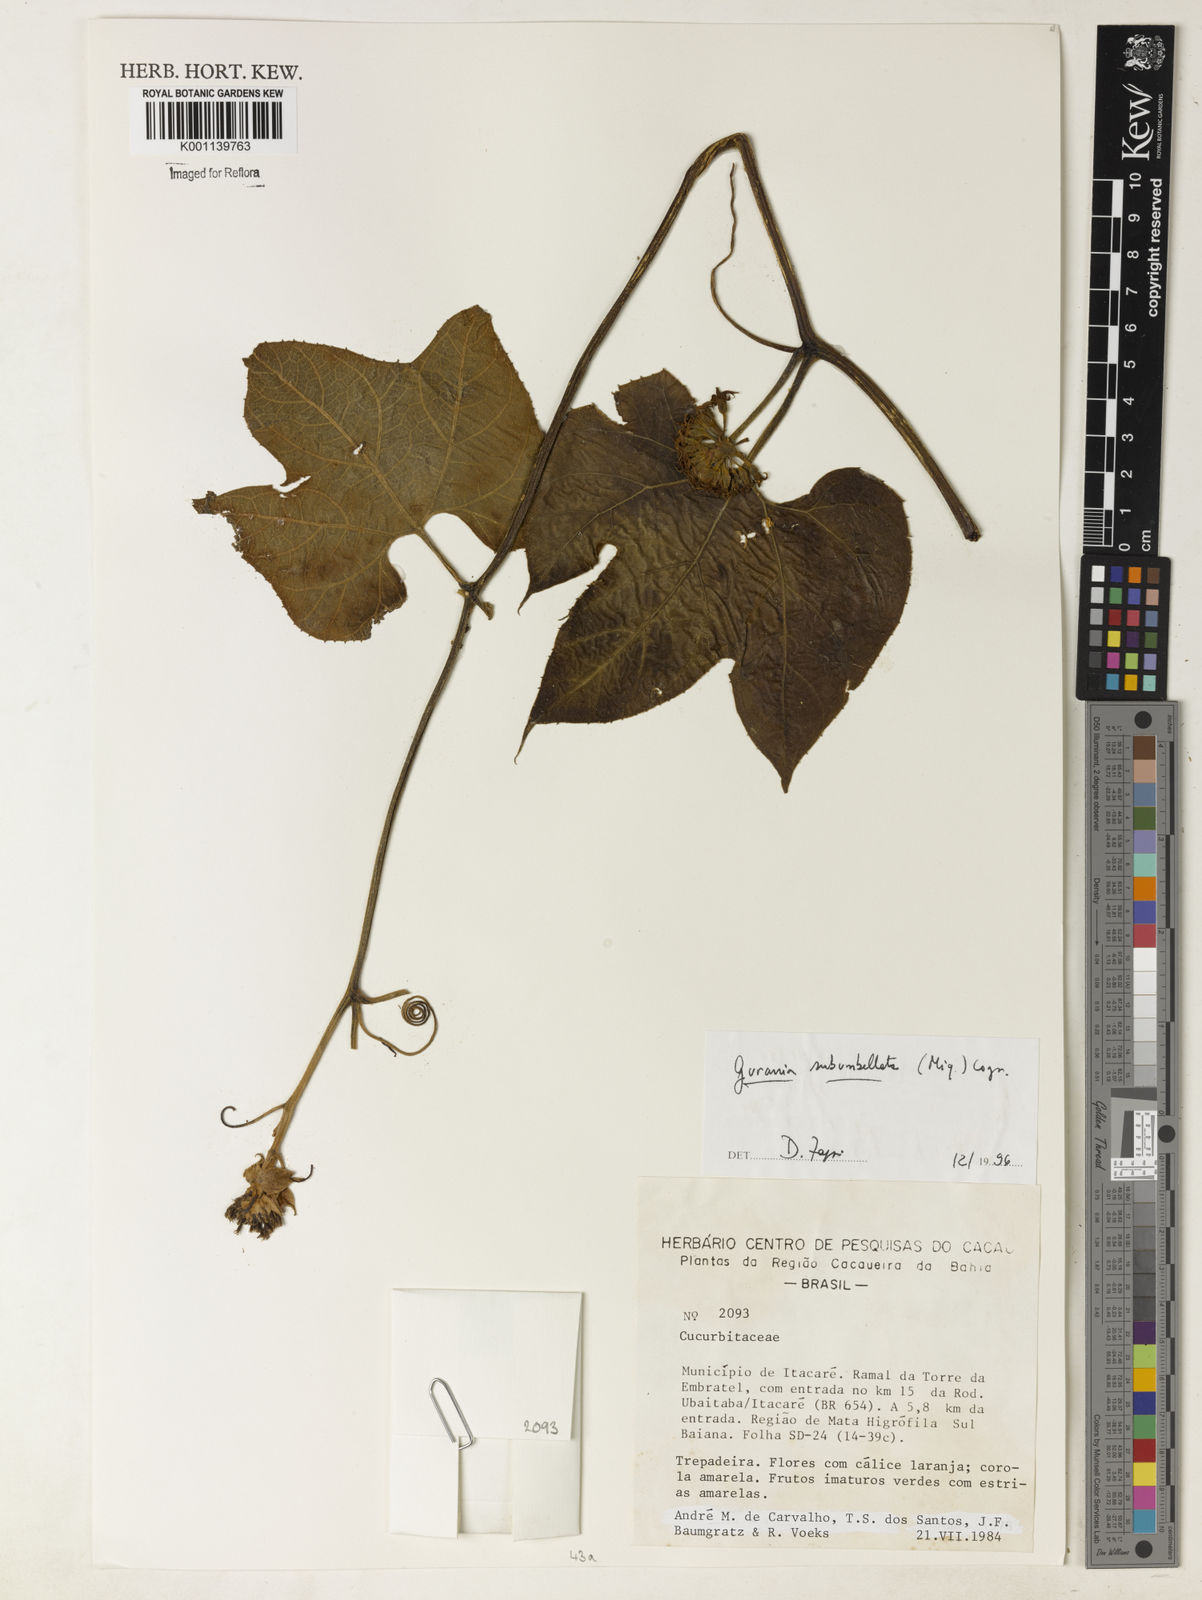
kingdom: Plantae
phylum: Tracheophyta
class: Magnoliopsida
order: Cucurbitales
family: Cucurbitaceae
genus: Gurania
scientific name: Gurania subumbellata
